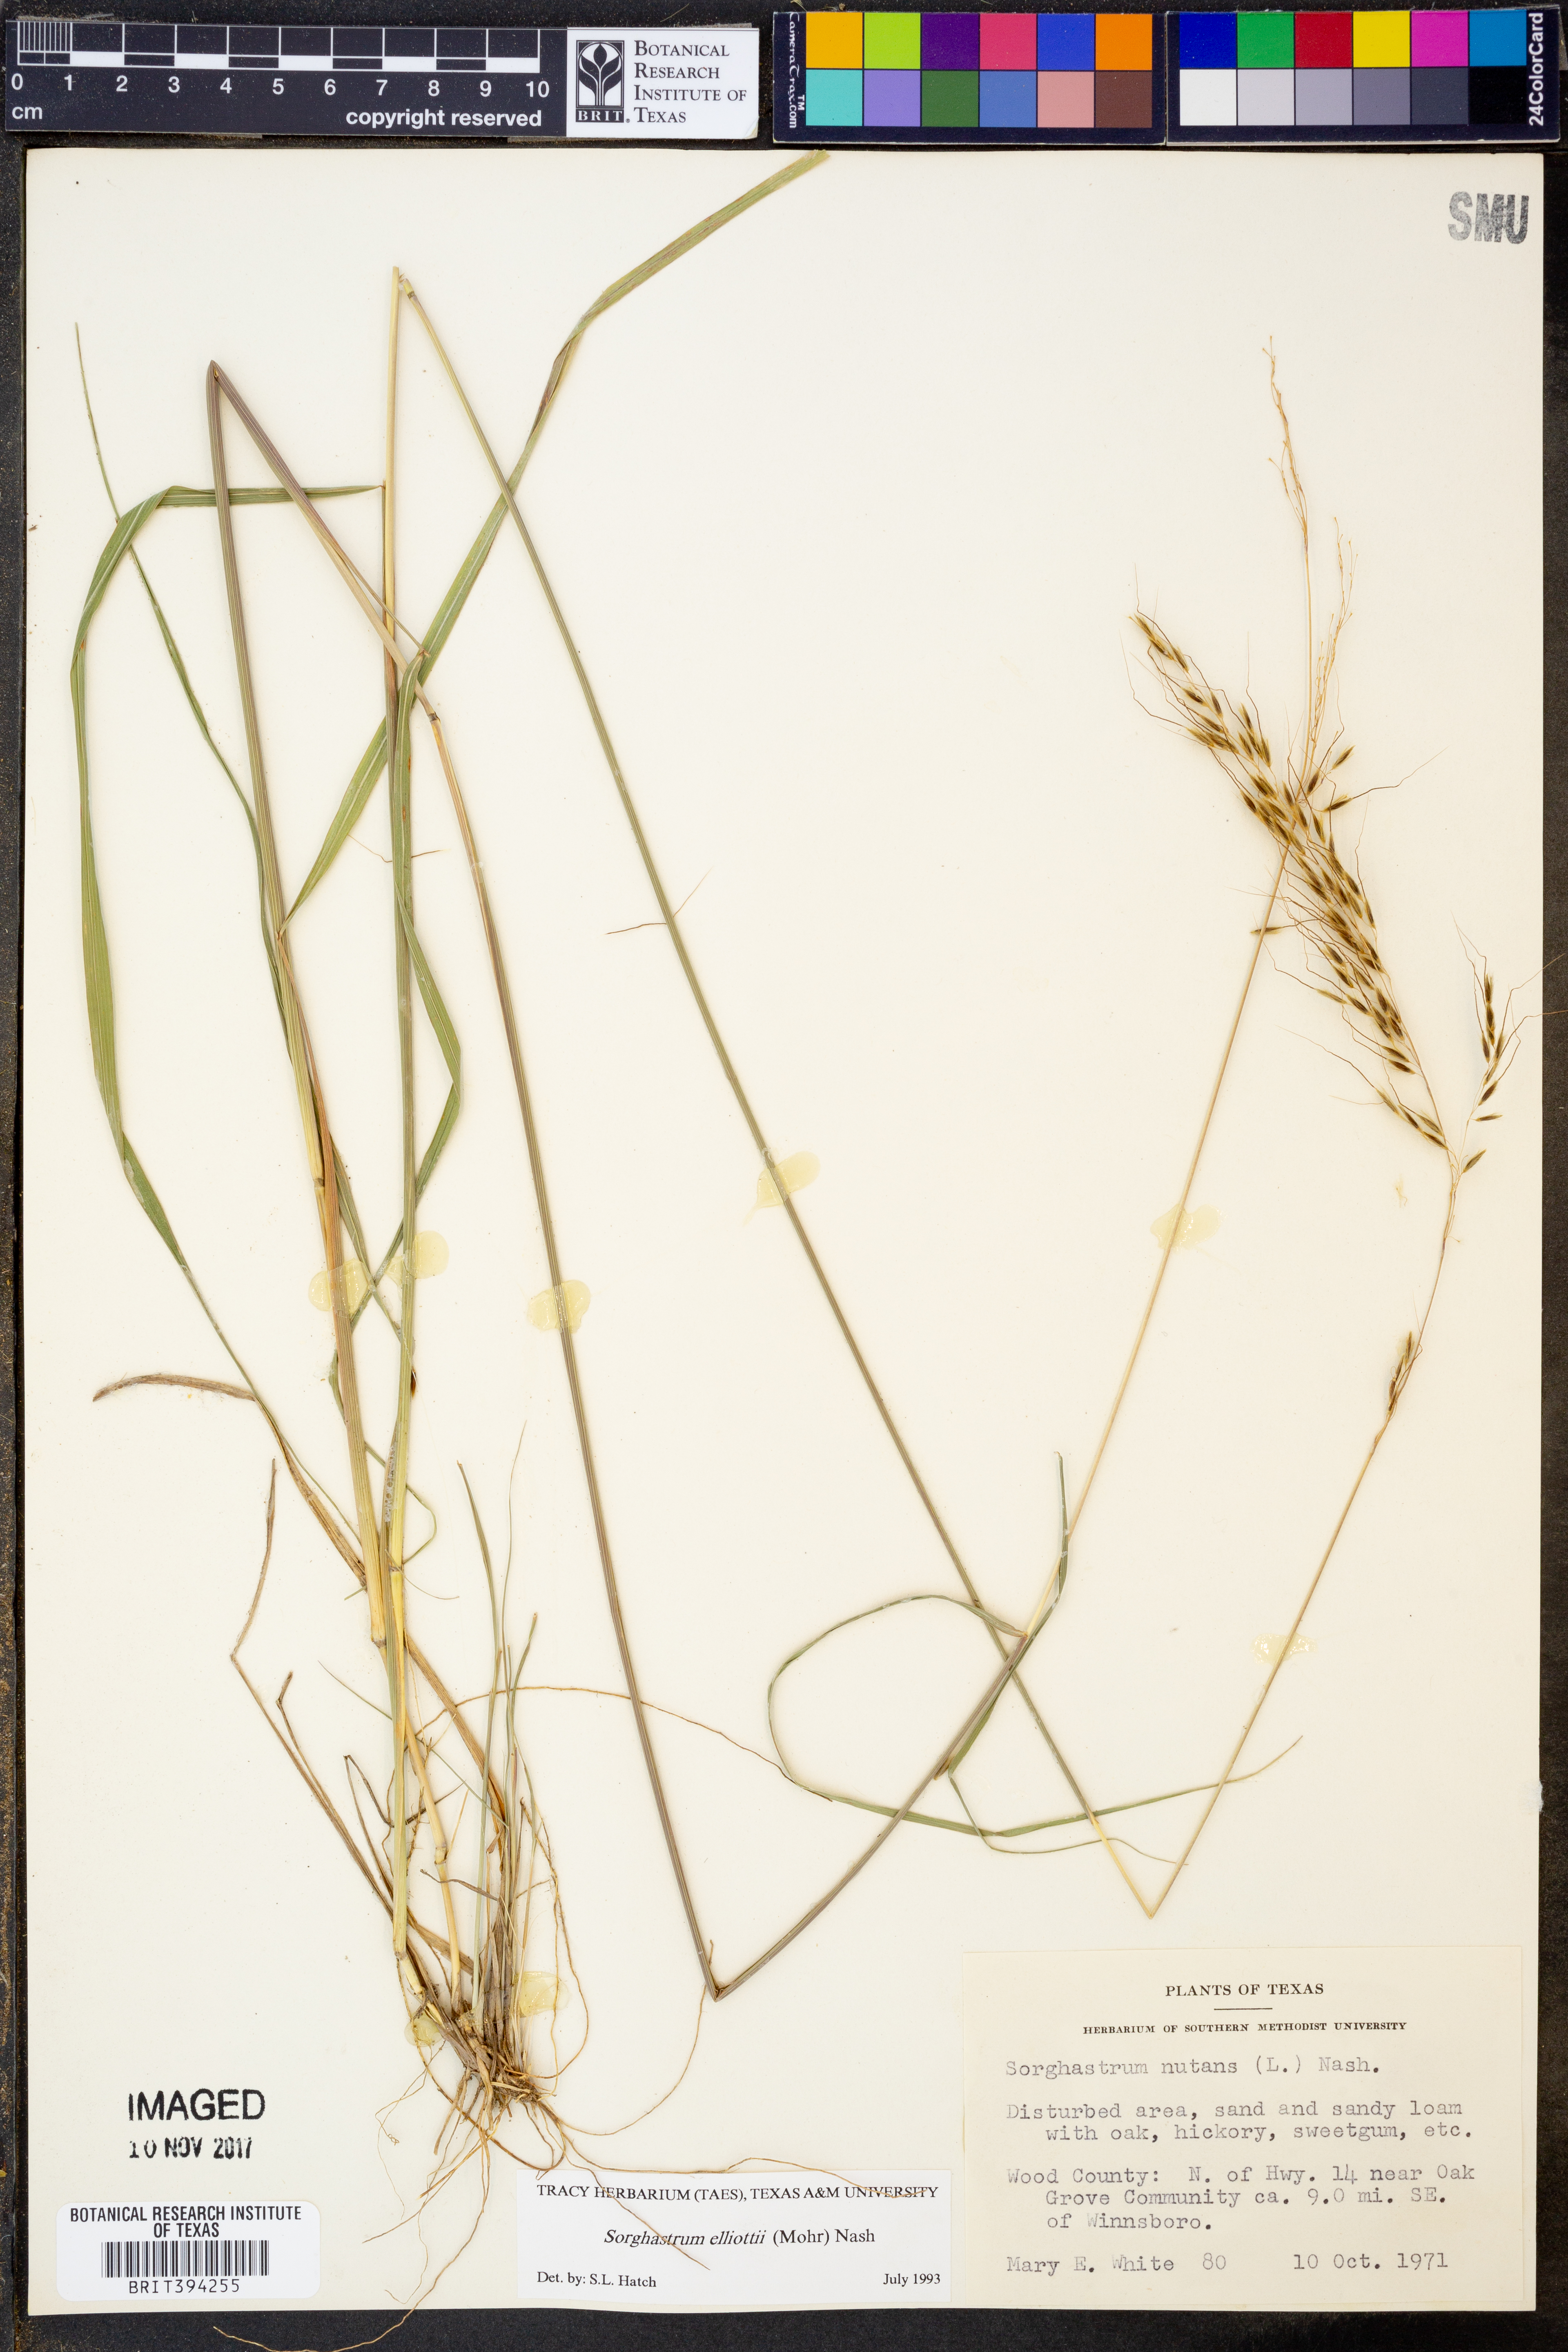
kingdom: Plantae
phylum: Tracheophyta
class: Liliopsida
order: Poales
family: Poaceae
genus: Sorghastrum
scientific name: Sorghastrum elliottii
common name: Slender indian grass
